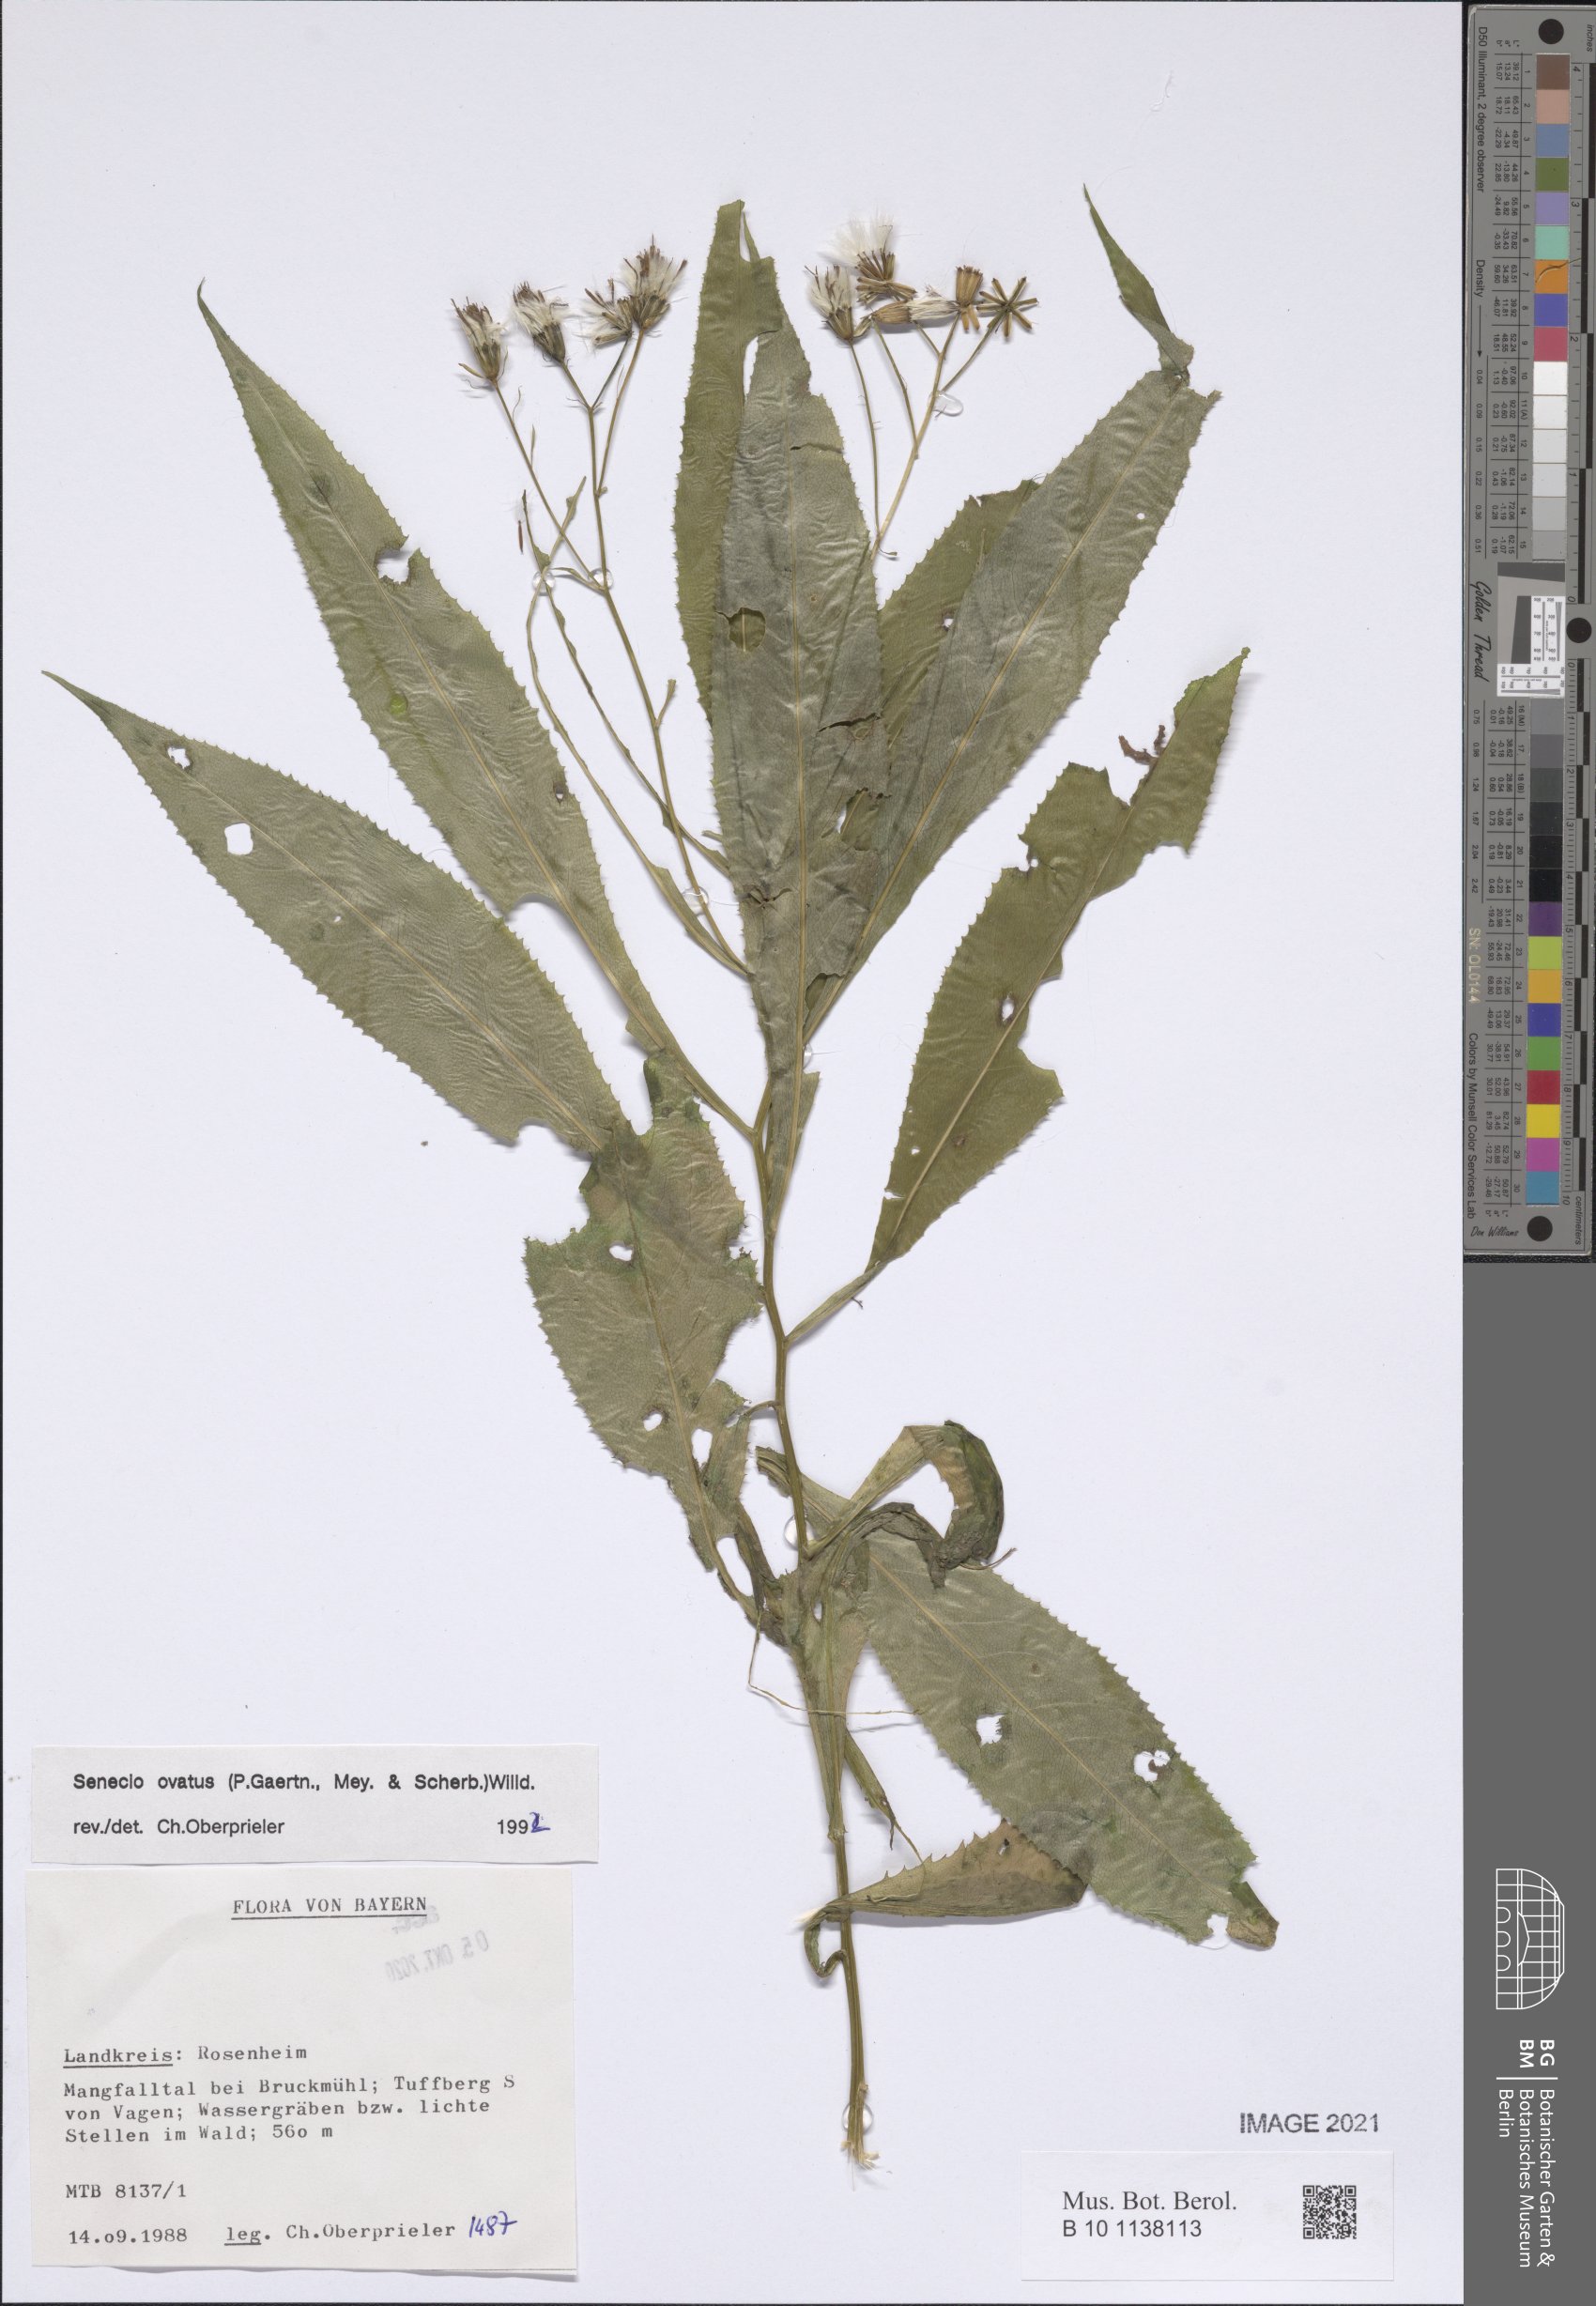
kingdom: Plantae
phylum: Tracheophyta
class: Magnoliopsida
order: Asterales
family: Asteraceae
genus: Senecio
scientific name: Senecio ovatus
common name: Wood ragwort
